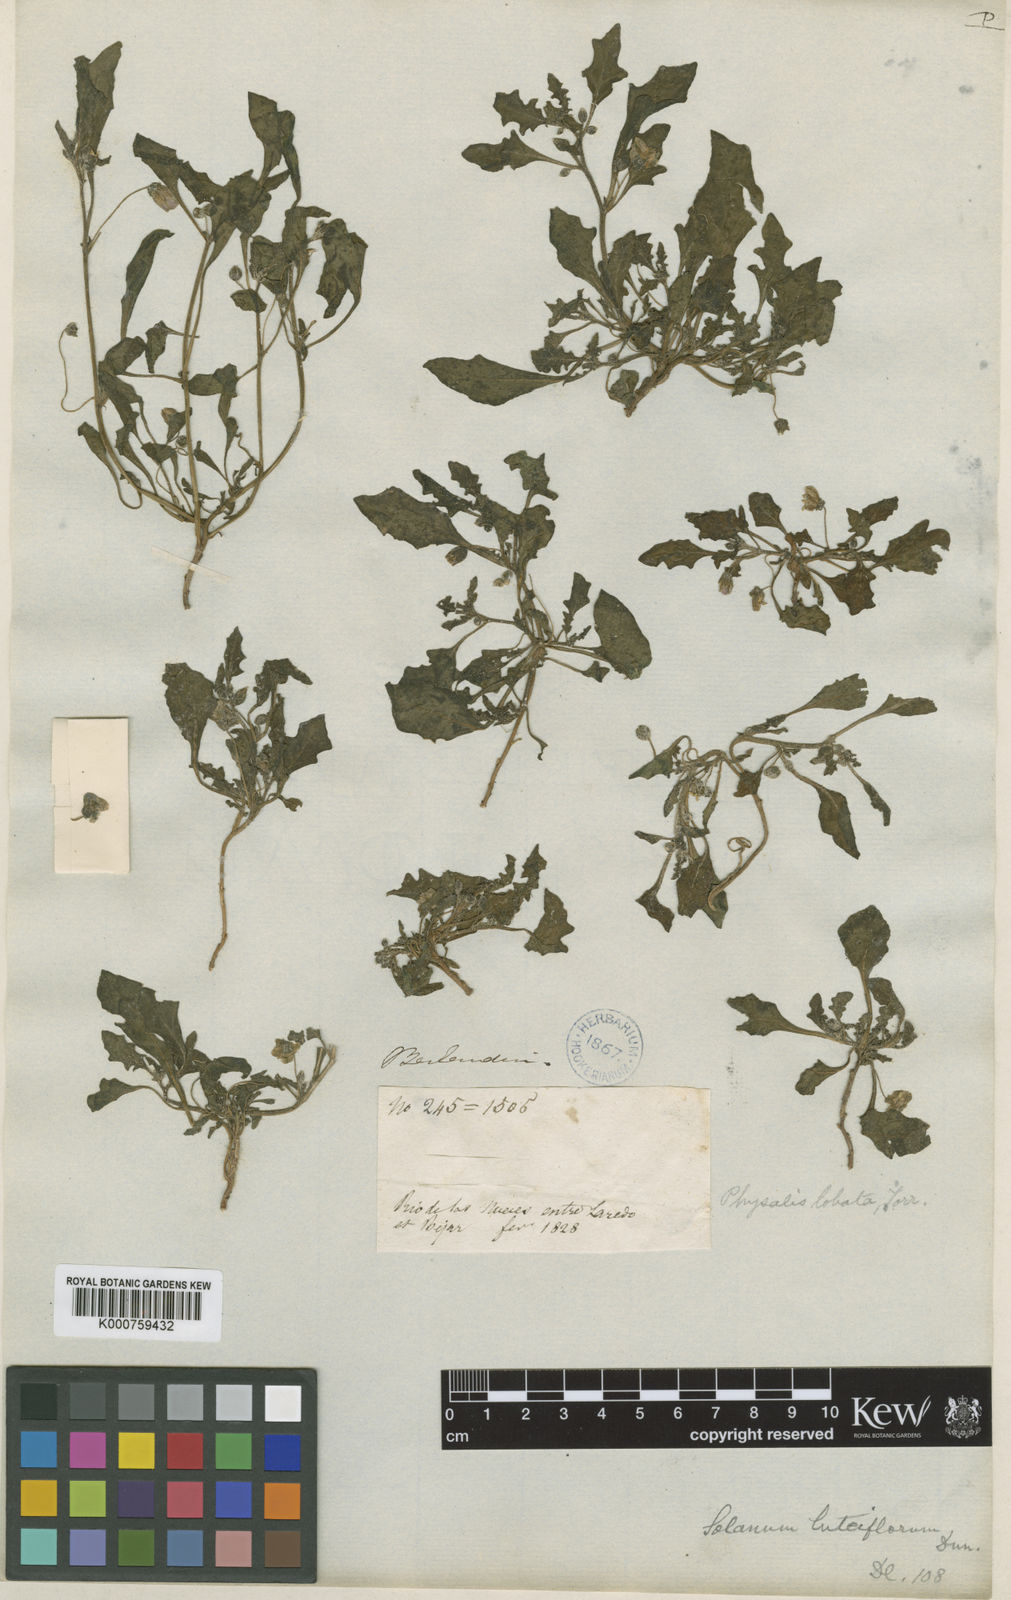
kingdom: Plantae
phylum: Tracheophyta
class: Magnoliopsida
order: Solanales
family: Solanaceae
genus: Quincula
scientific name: Quincula lobata
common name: Purple-ground-cherry
